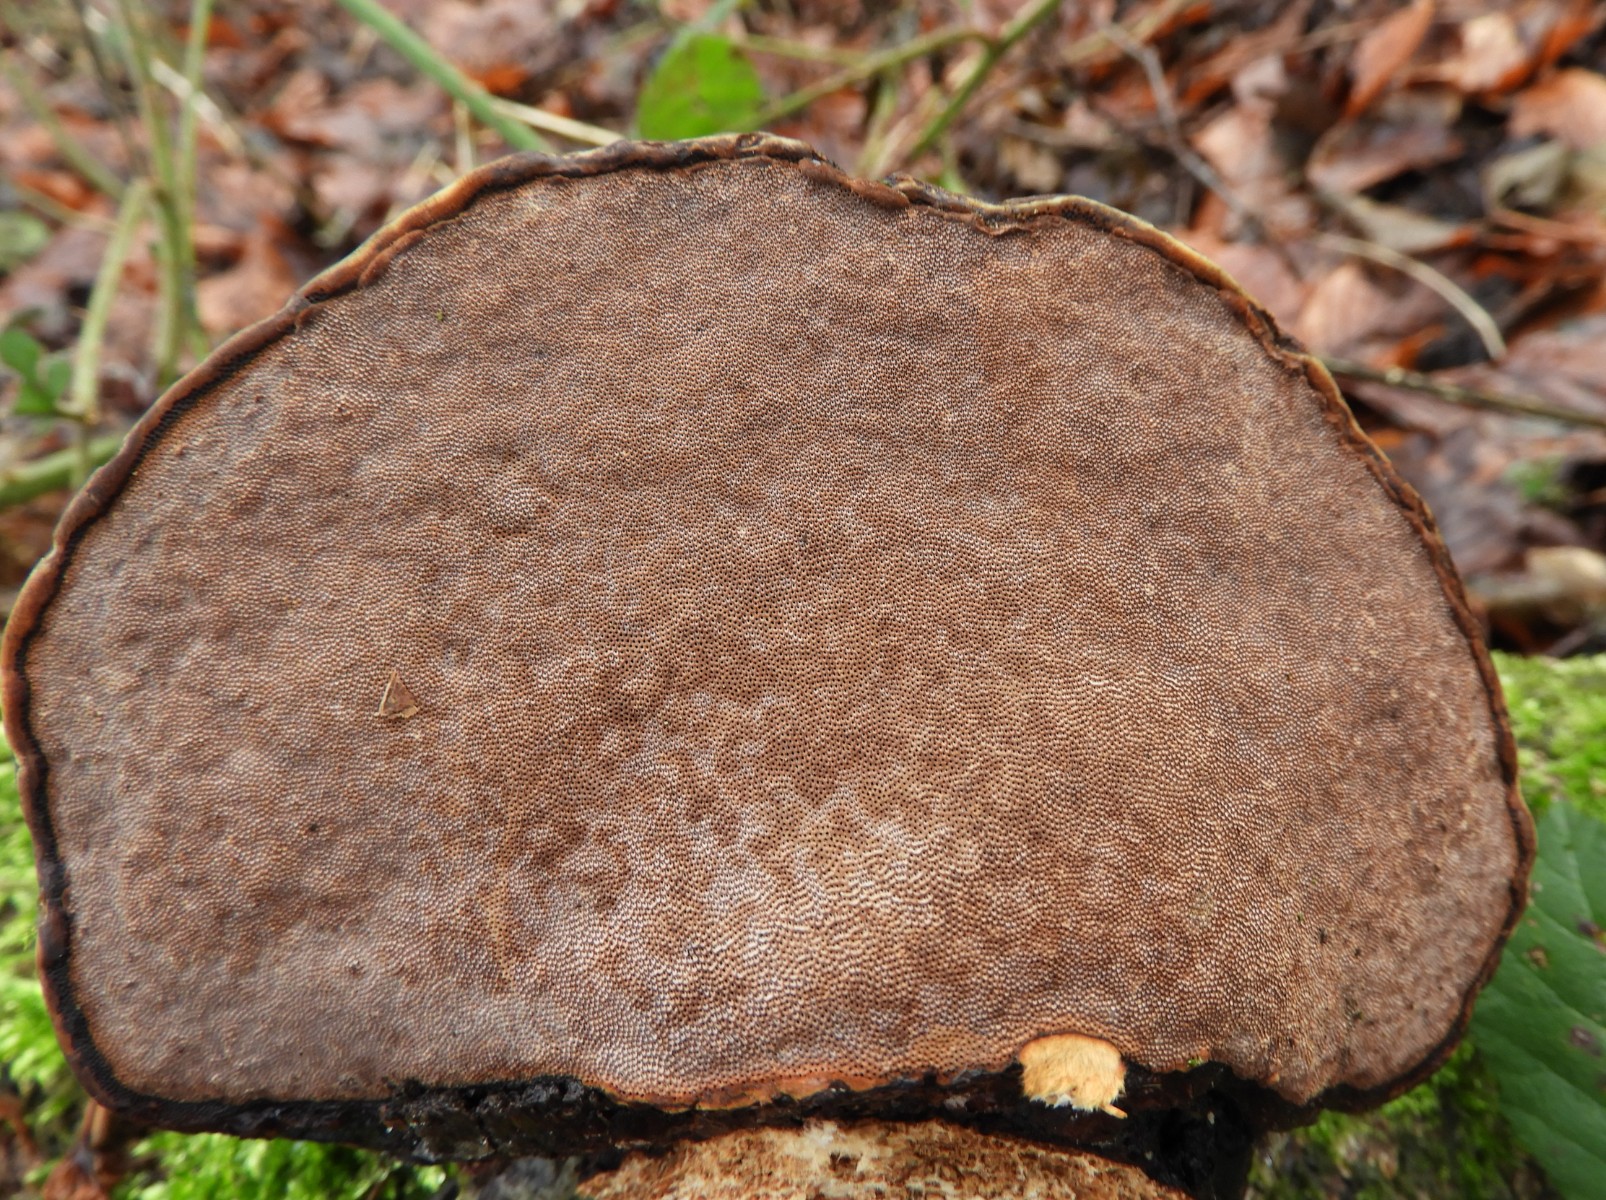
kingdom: Fungi
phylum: Basidiomycota
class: Agaricomycetes
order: Polyporales
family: Polyporaceae
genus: Fomes
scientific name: Fomes fomentarius
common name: tøndersvamp
